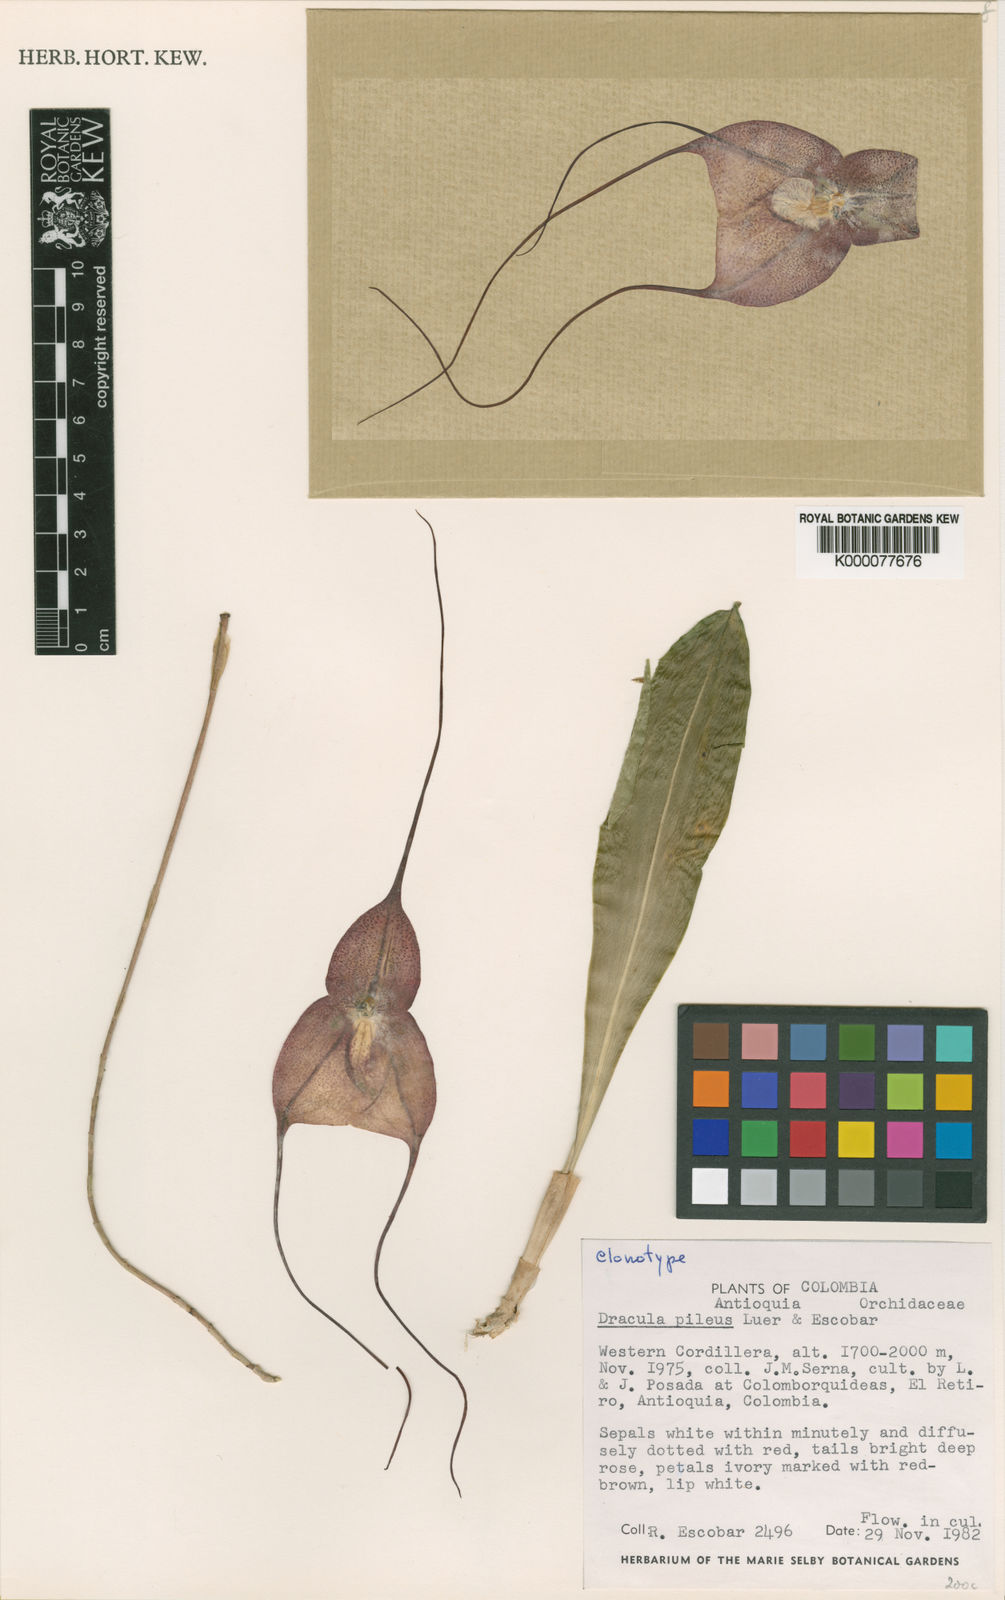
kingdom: Plantae
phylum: Tracheophyta
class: Liliopsida
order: Asparagales
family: Orchidaceae
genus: Dracula
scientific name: Dracula pileus
